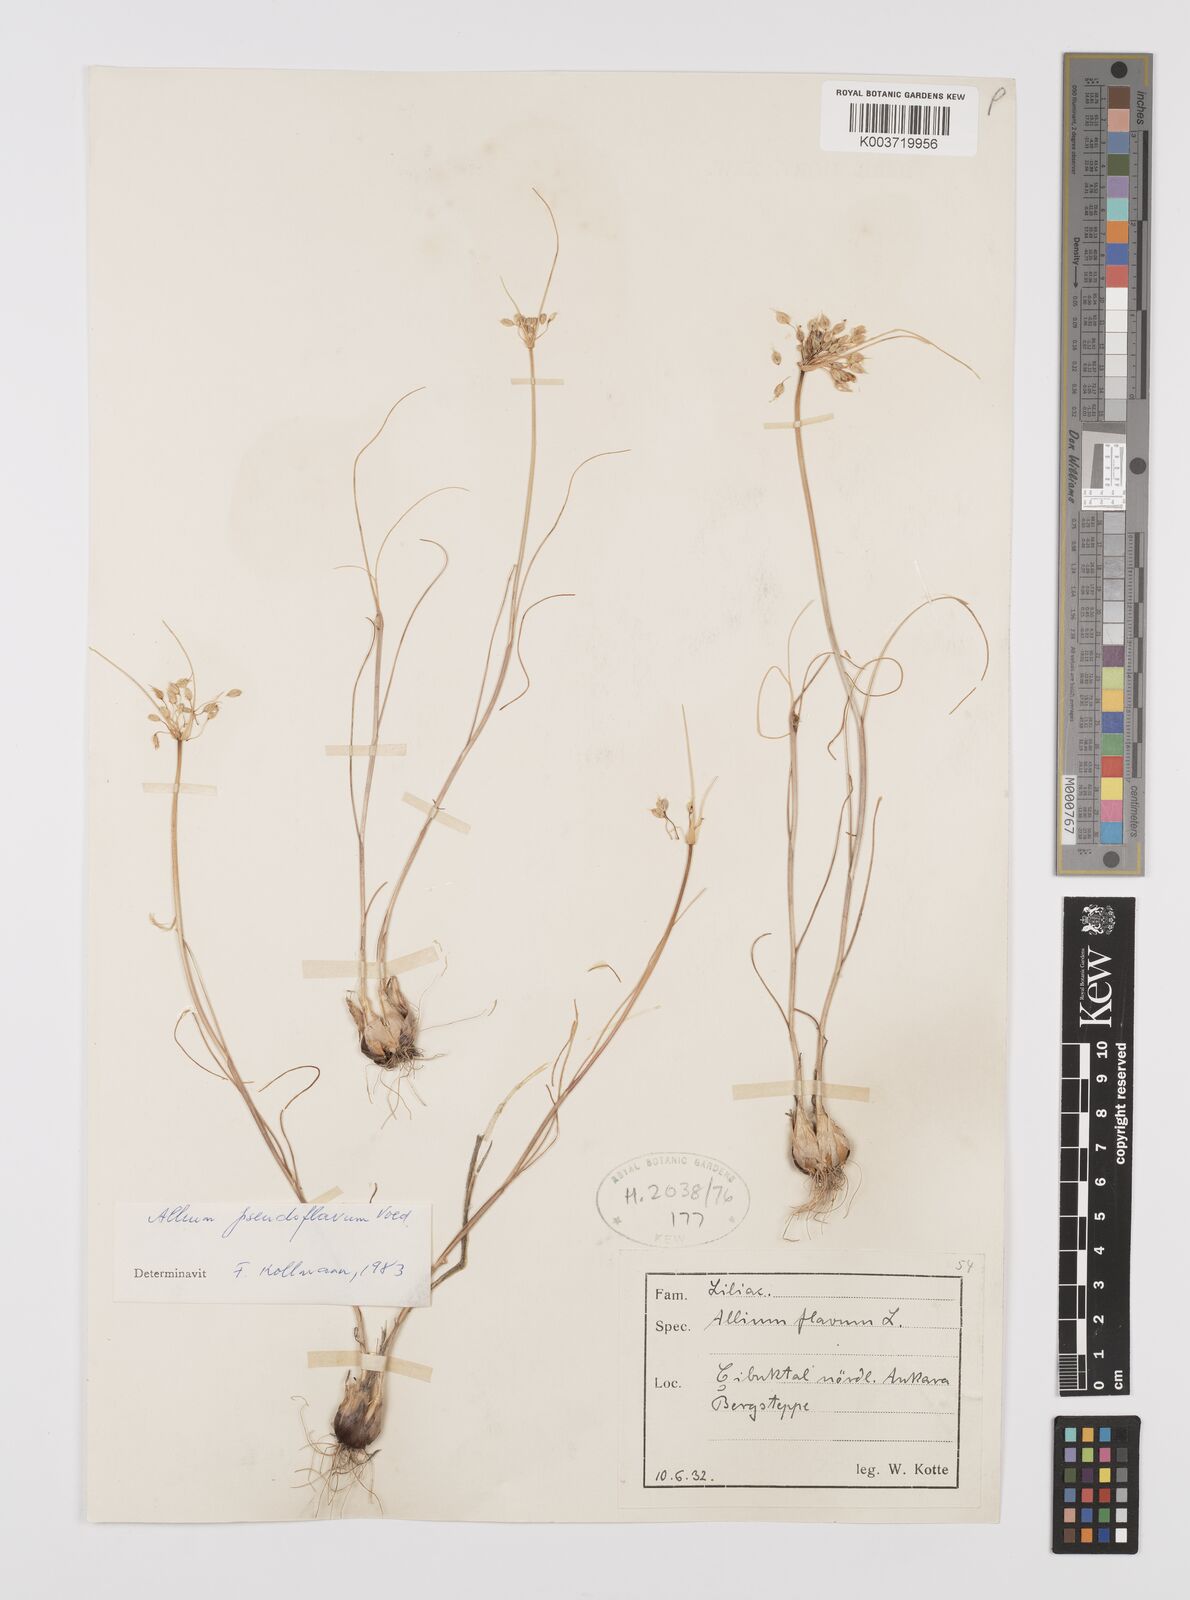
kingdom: Plantae
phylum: Tracheophyta
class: Liliopsida
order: Asparagales
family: Amaryllidaceae
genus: Allium
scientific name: Allium pseudoflavum
